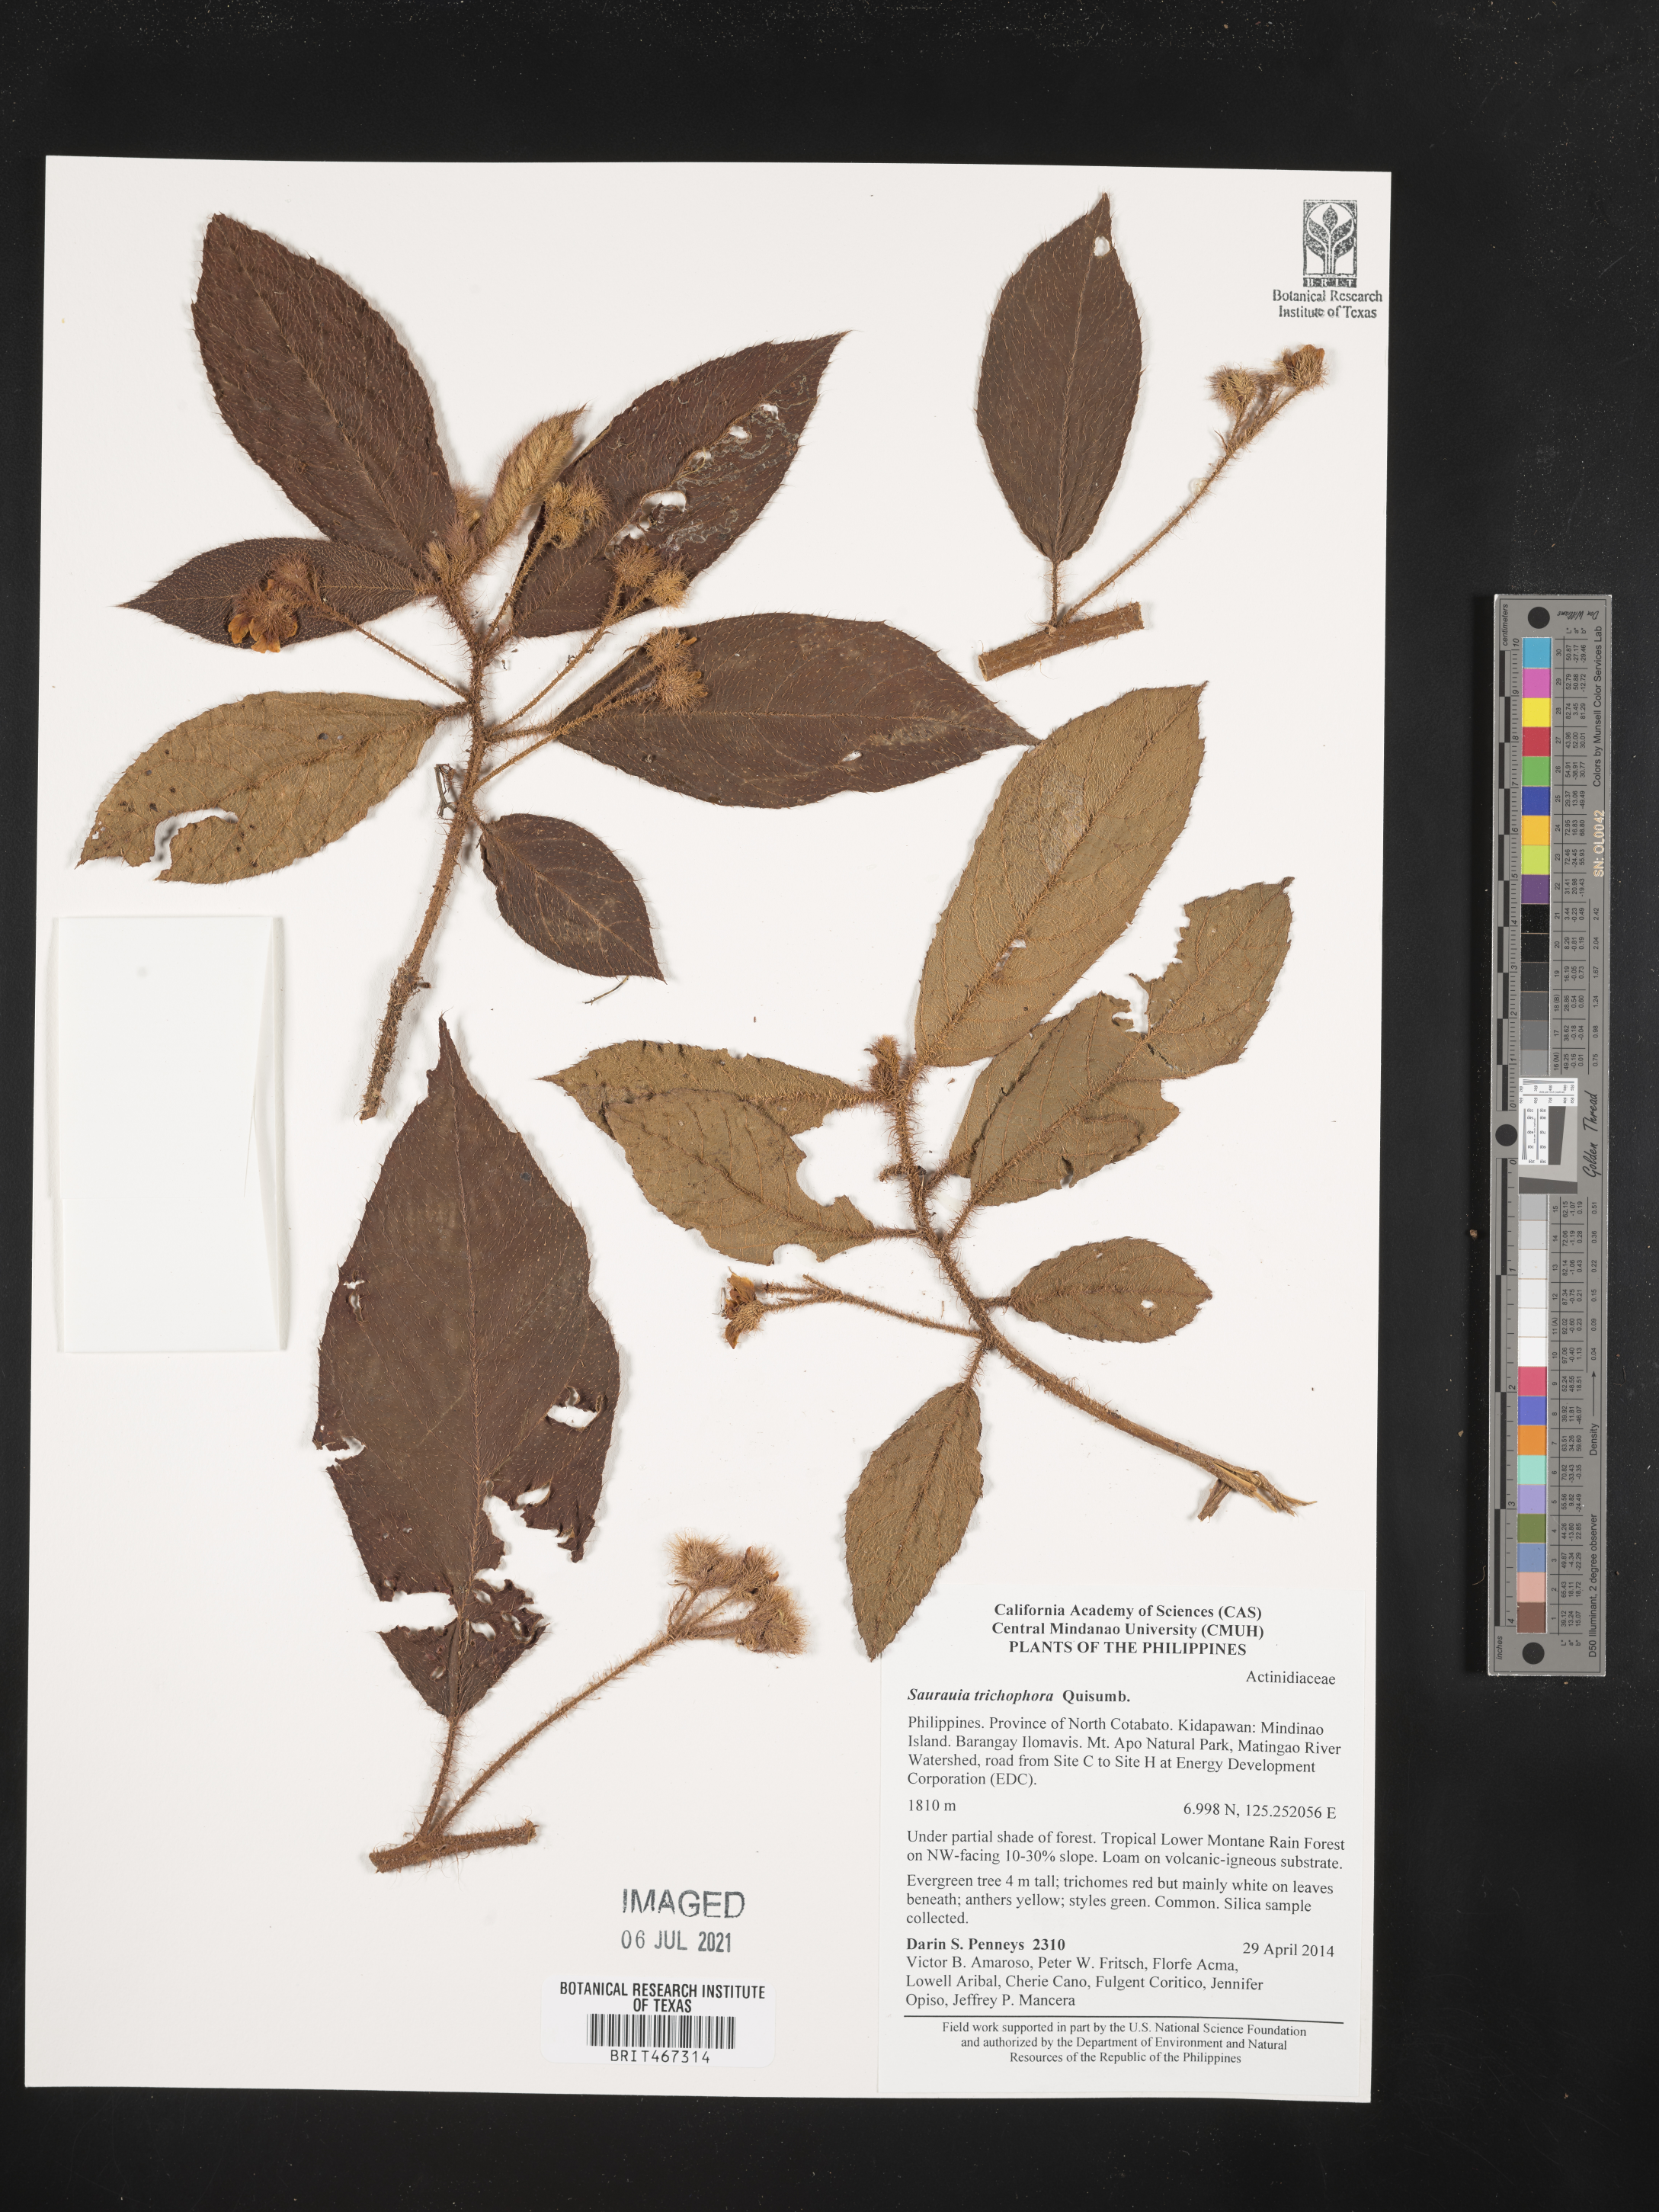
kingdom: Plantae
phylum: Tracheophyta
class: Magnoliopsida
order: Ericales
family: Actinidiaceae
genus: Saurauia
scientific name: Saurauia trichophora
